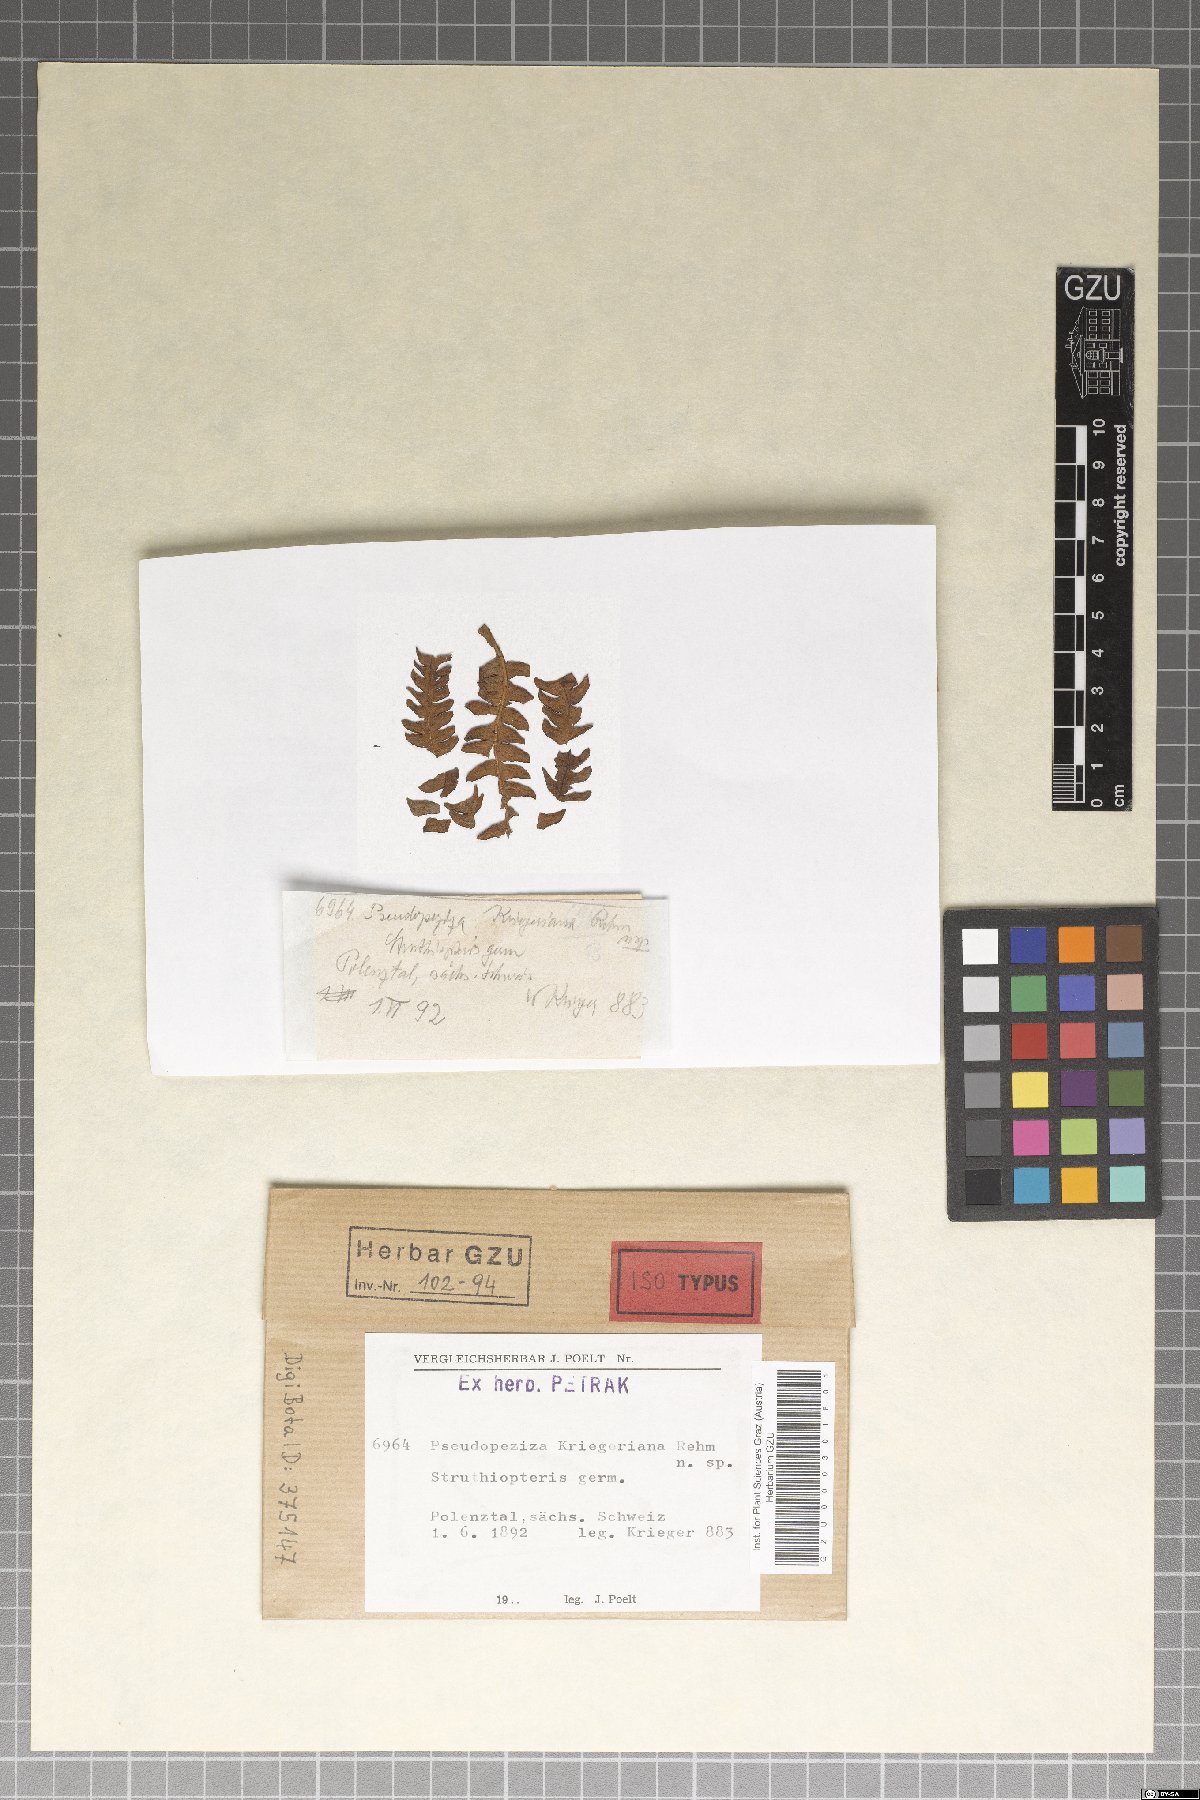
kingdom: Fungi
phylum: Ascomycota
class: Leotiomycetes
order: Helotiales
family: Drepanopezizaceae
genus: Pseudopeziza
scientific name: Pseudopeziza kriegeriana
